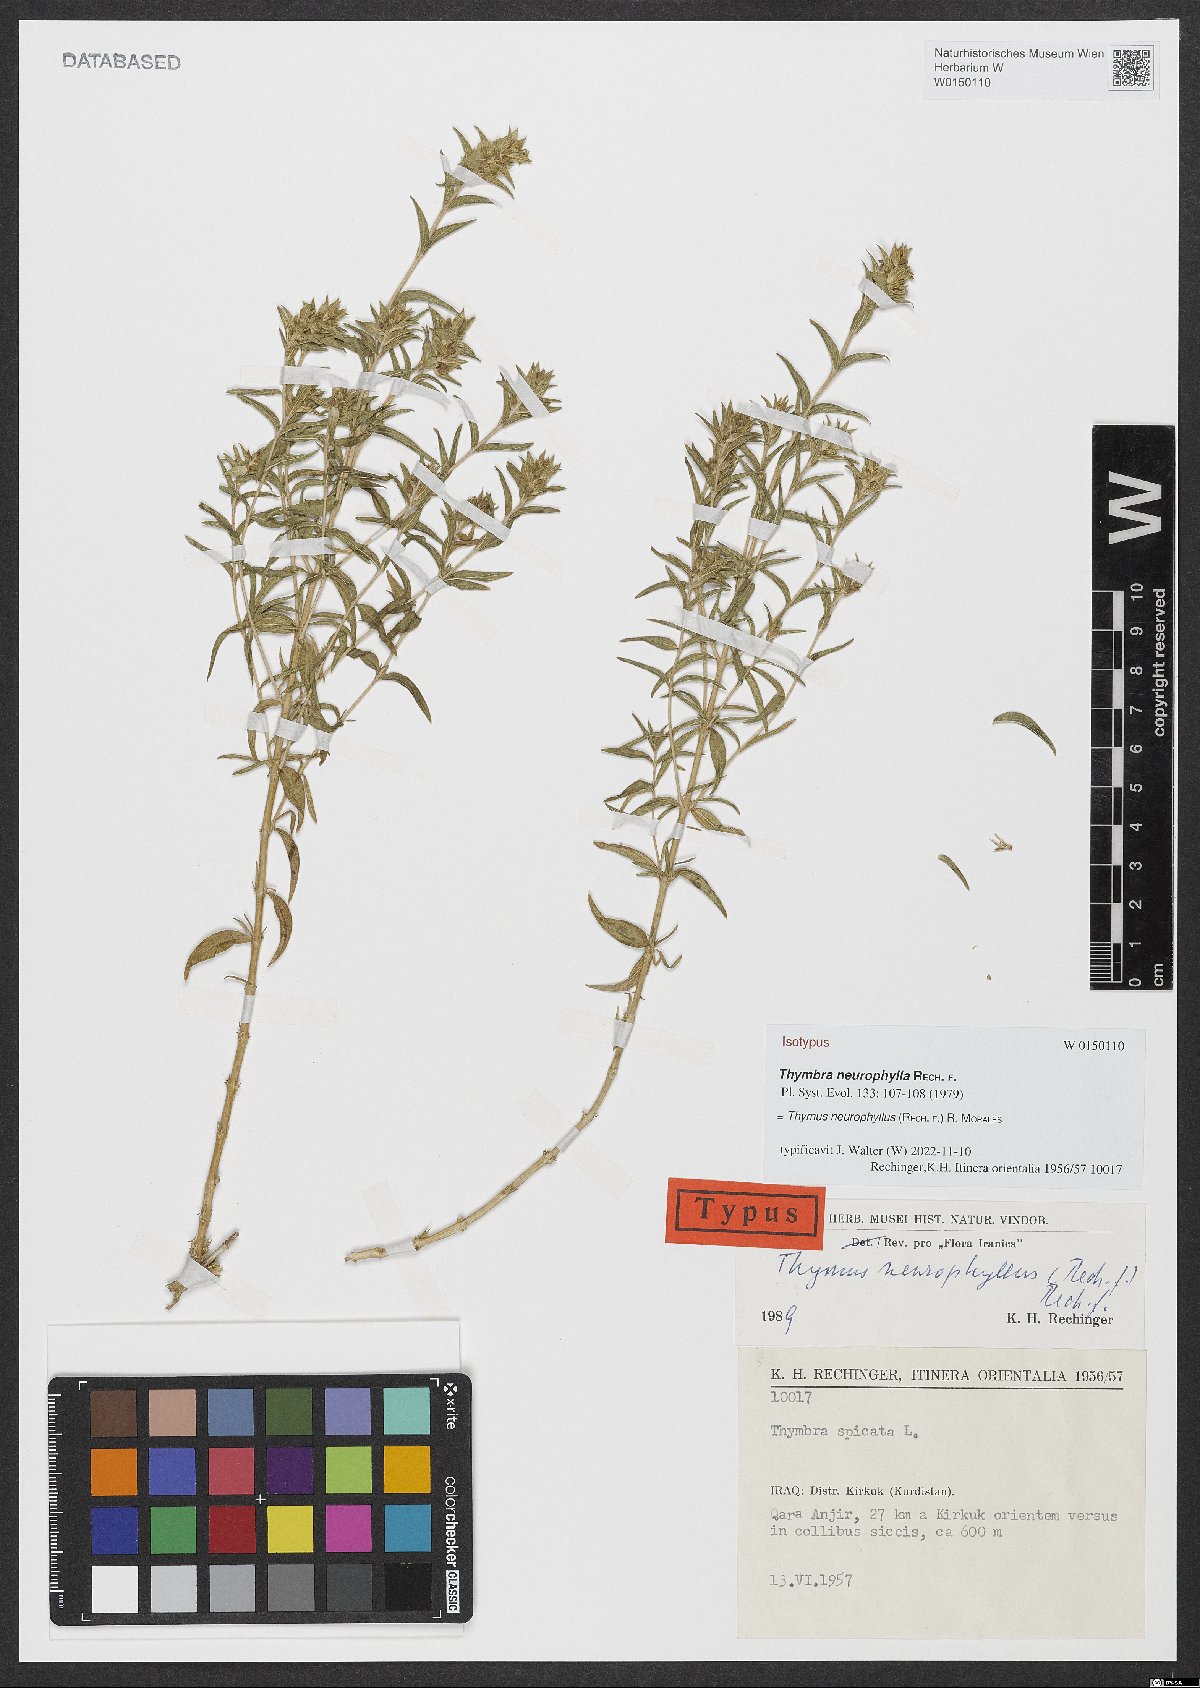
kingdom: Plantae
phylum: Tracheophyta
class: Magnoliopsida
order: Lamiales
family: Lamiaceae
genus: Thymus
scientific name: Thymus neurophyllus
